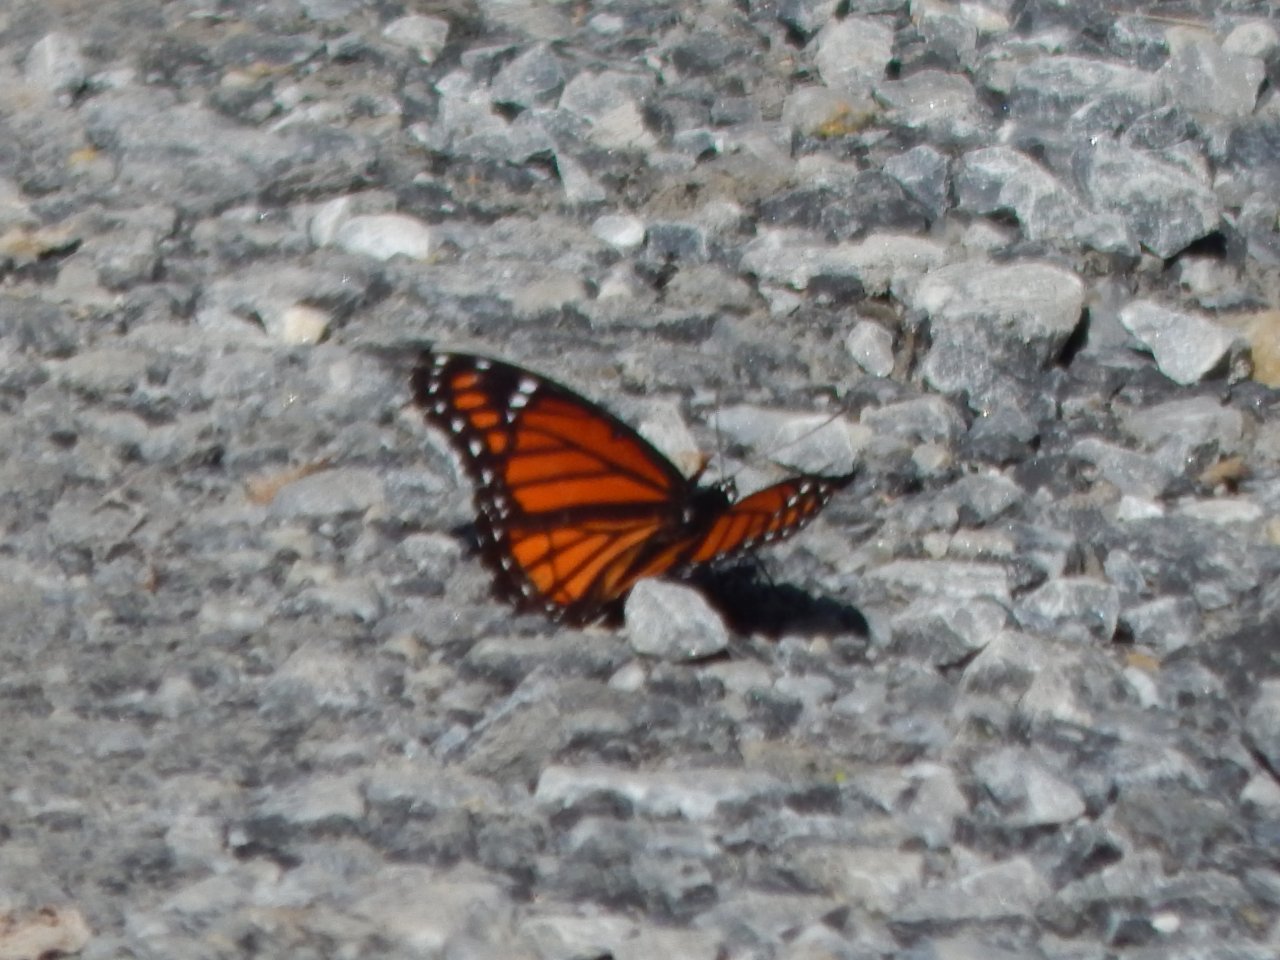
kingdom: Animalia
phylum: Arthropoda
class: Insecta
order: Lepidoptera
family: Nymphalidae
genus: Limenitis
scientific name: Limenitis archippus
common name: Viceroy
